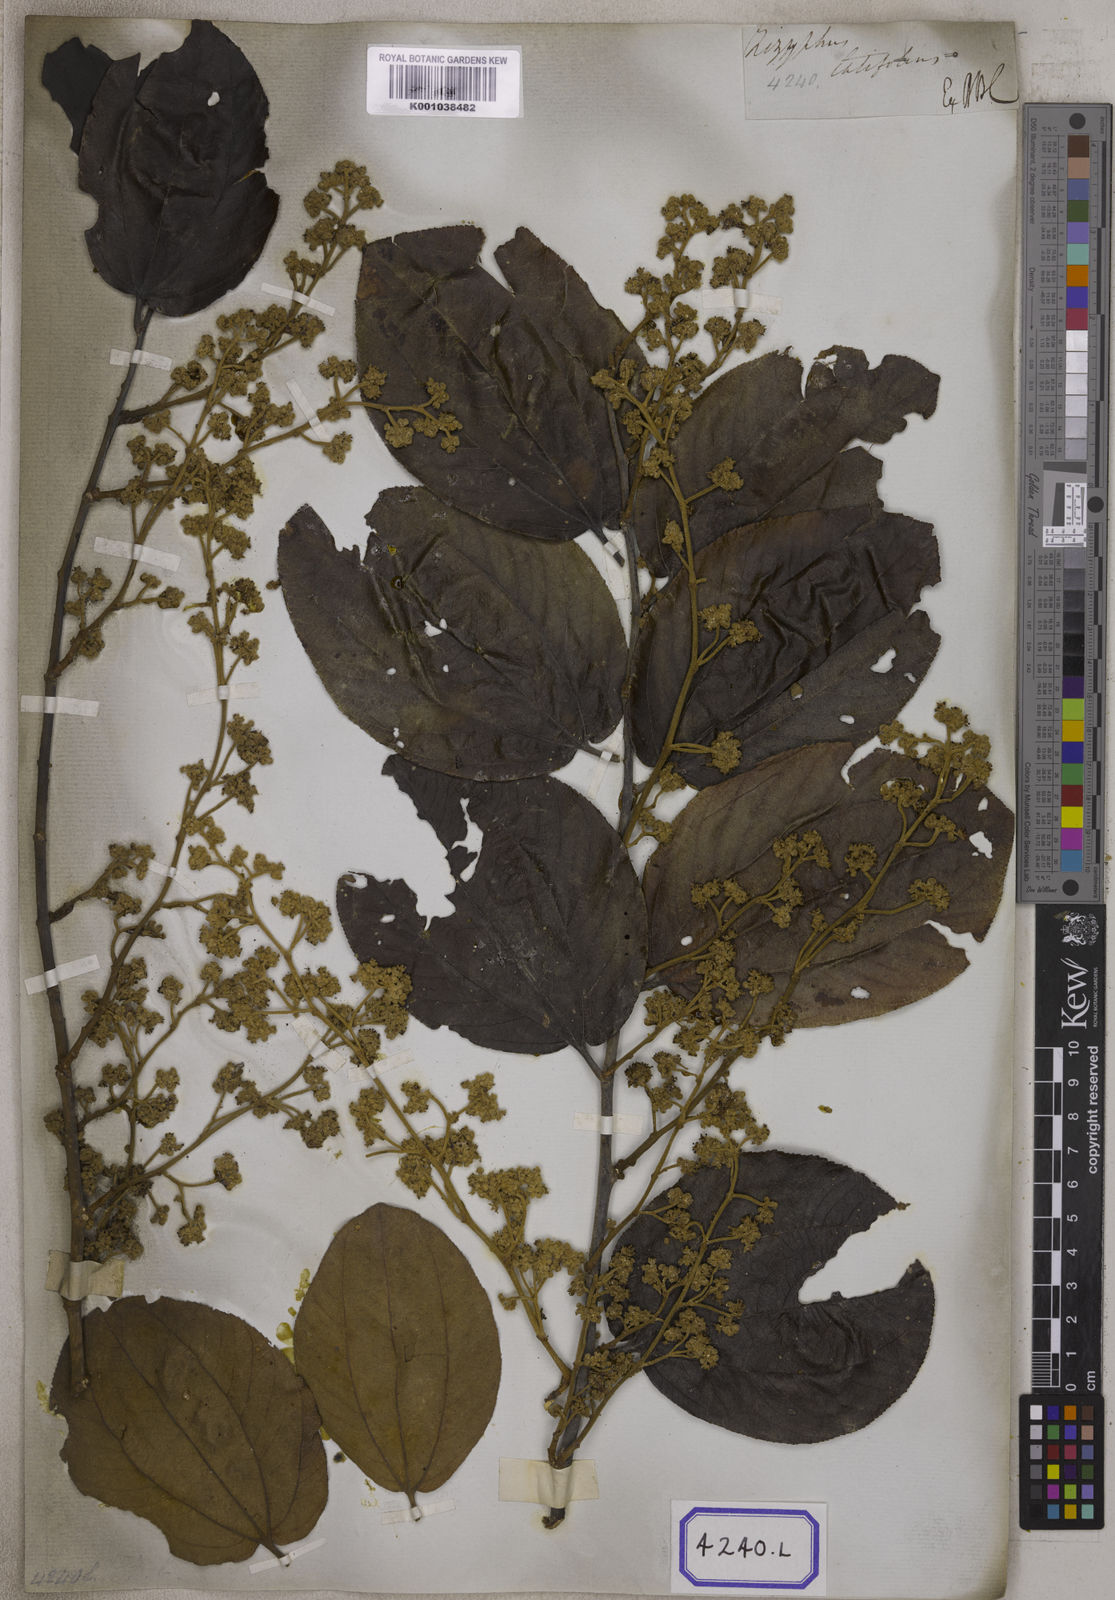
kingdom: Plantae
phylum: Tracheophyta
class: Magnoliopsida
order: Rosales
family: Rhamnaceae
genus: Ziziphus
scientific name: Ziziphus rugosa
